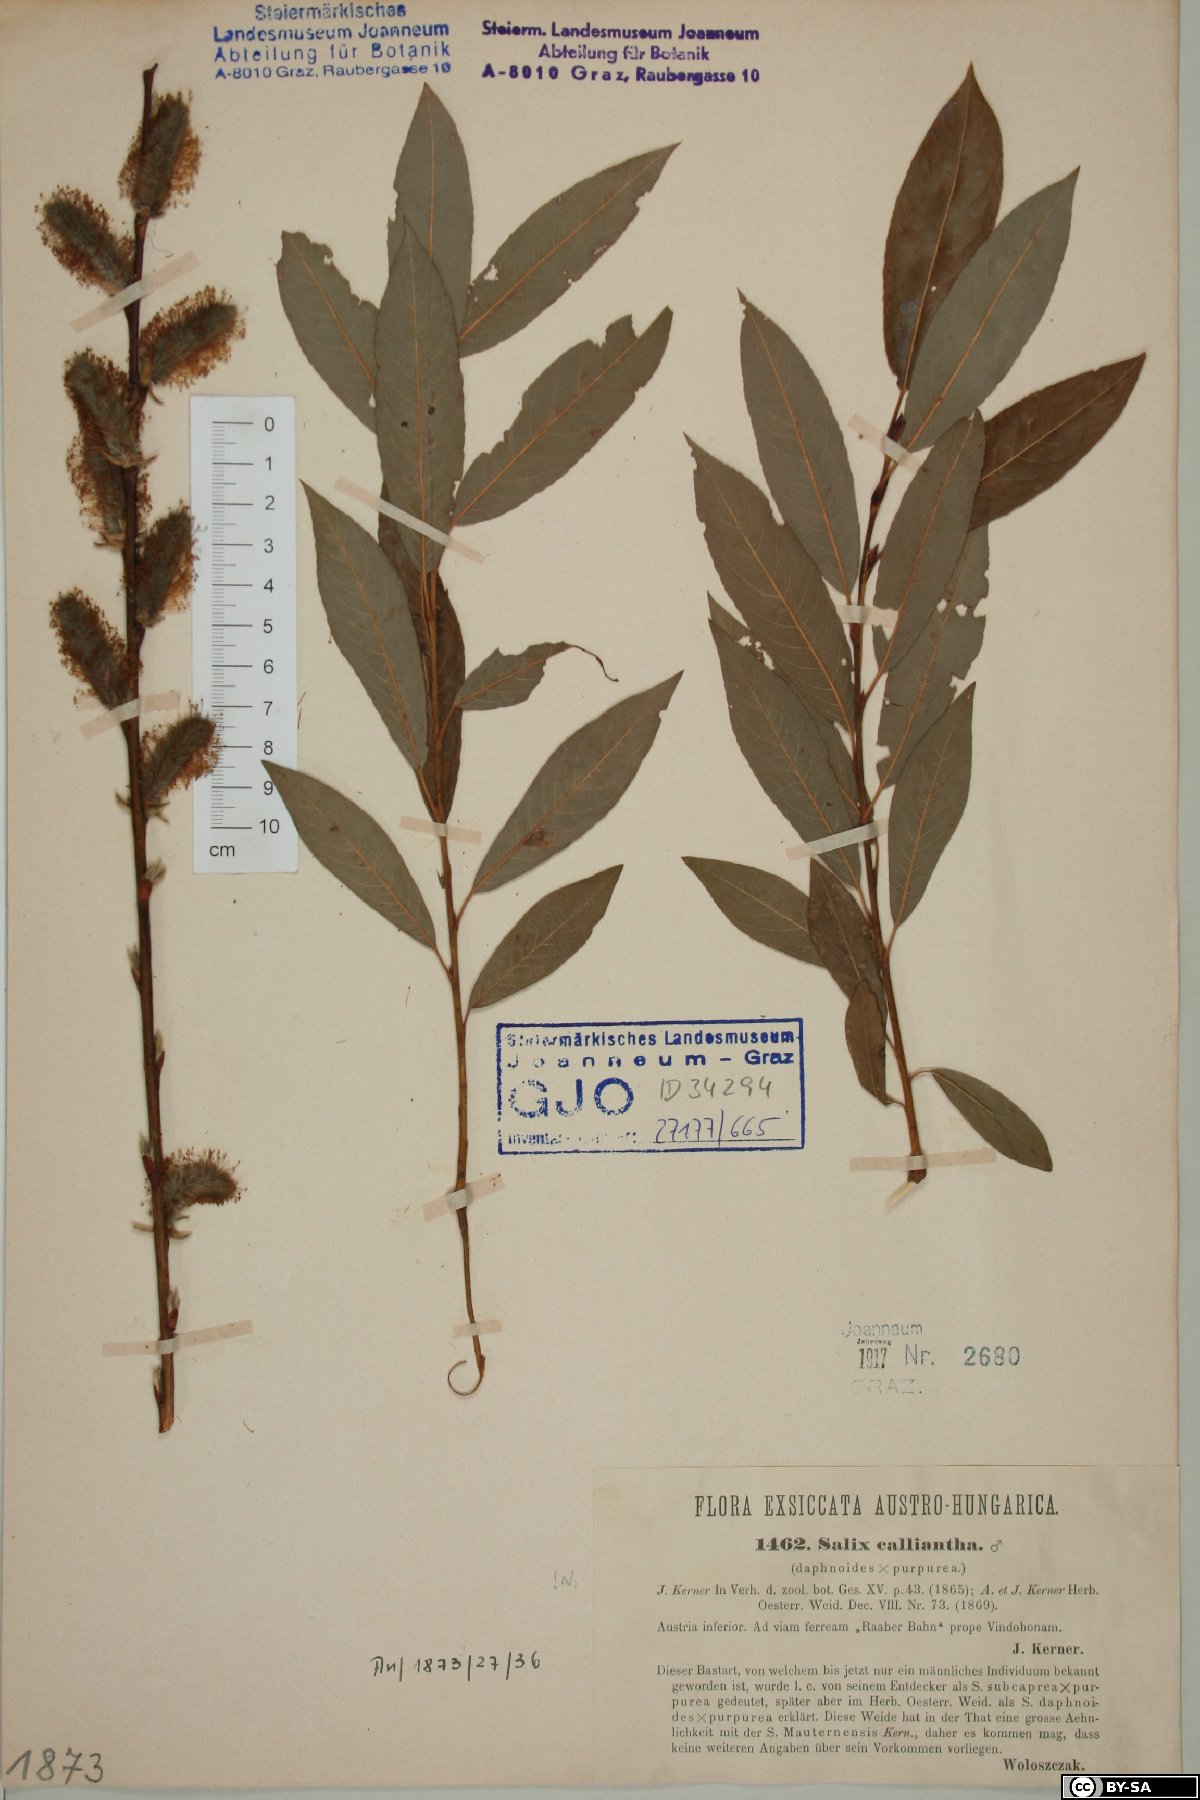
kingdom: Plantae
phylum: Tracheophyta
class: Magnoliopsida
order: Malpighiales
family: Salicaceae
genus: Salix
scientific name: Salix calliantha
